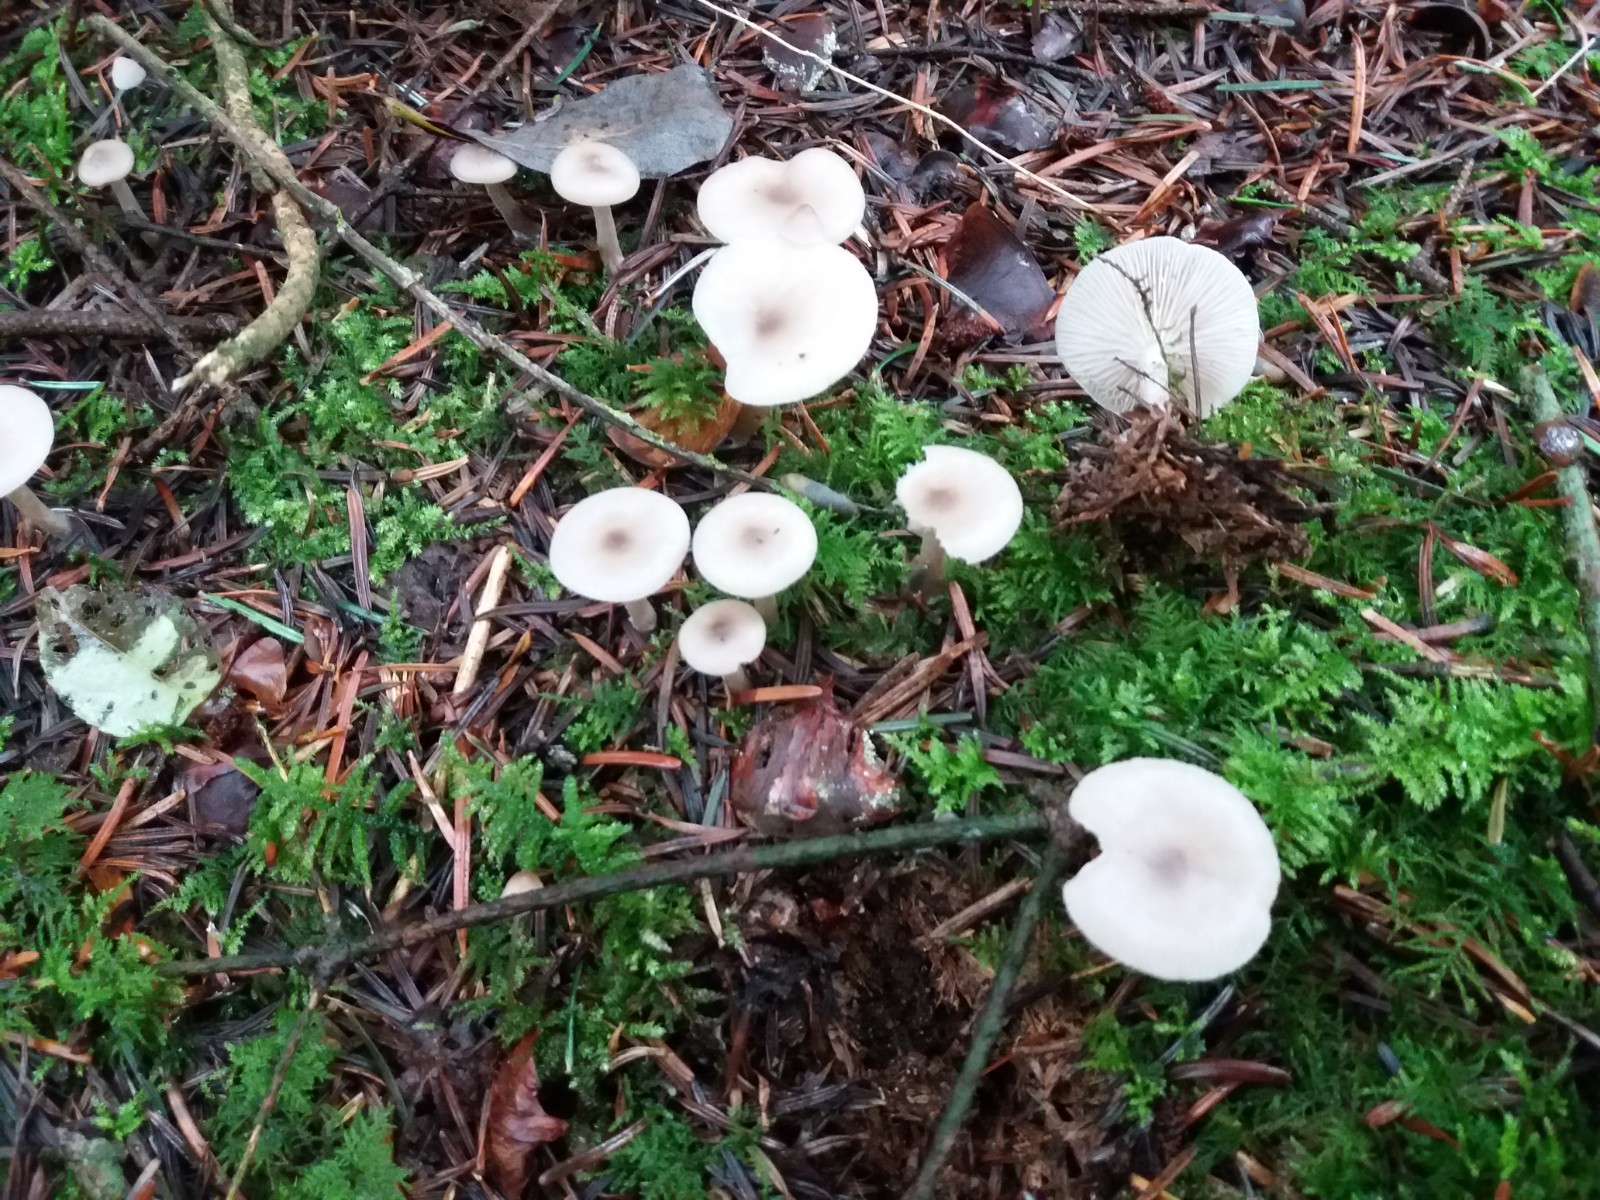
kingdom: Fungi
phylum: Basidiomycota
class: Agaricomycetes
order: Agaricales
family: Tricholomataceae
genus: Clitocybe
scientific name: Clitocybe metachroa
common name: grå tragthat
